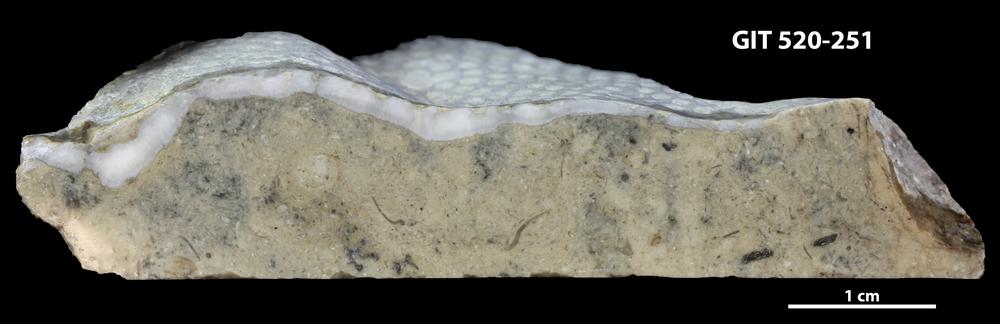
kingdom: Animalia
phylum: Cnidaria
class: Anthozoa
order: Heliolitina
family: Coccoserididae
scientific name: Coccoserididae
